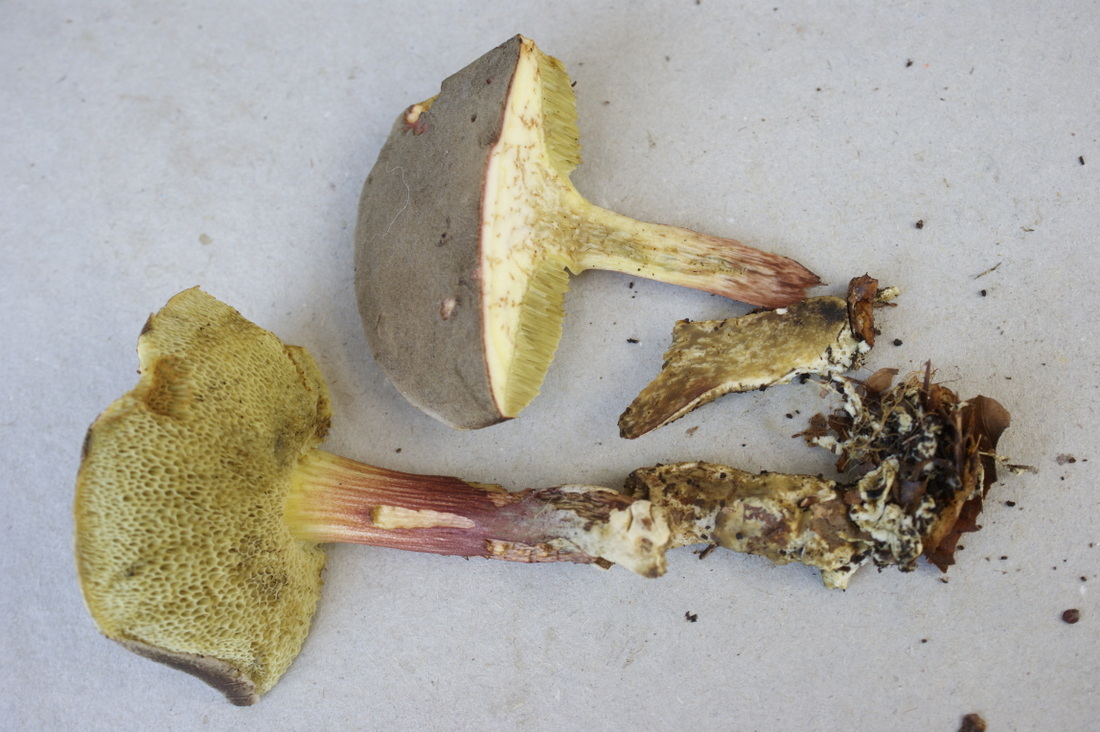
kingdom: Fungi
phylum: Basidiomycota
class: Agaricomycetes
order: Boletales
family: Boletaceae
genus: Xerocomellus
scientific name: Xerocomellus chrysenteron
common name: rødsprukken rørhat
